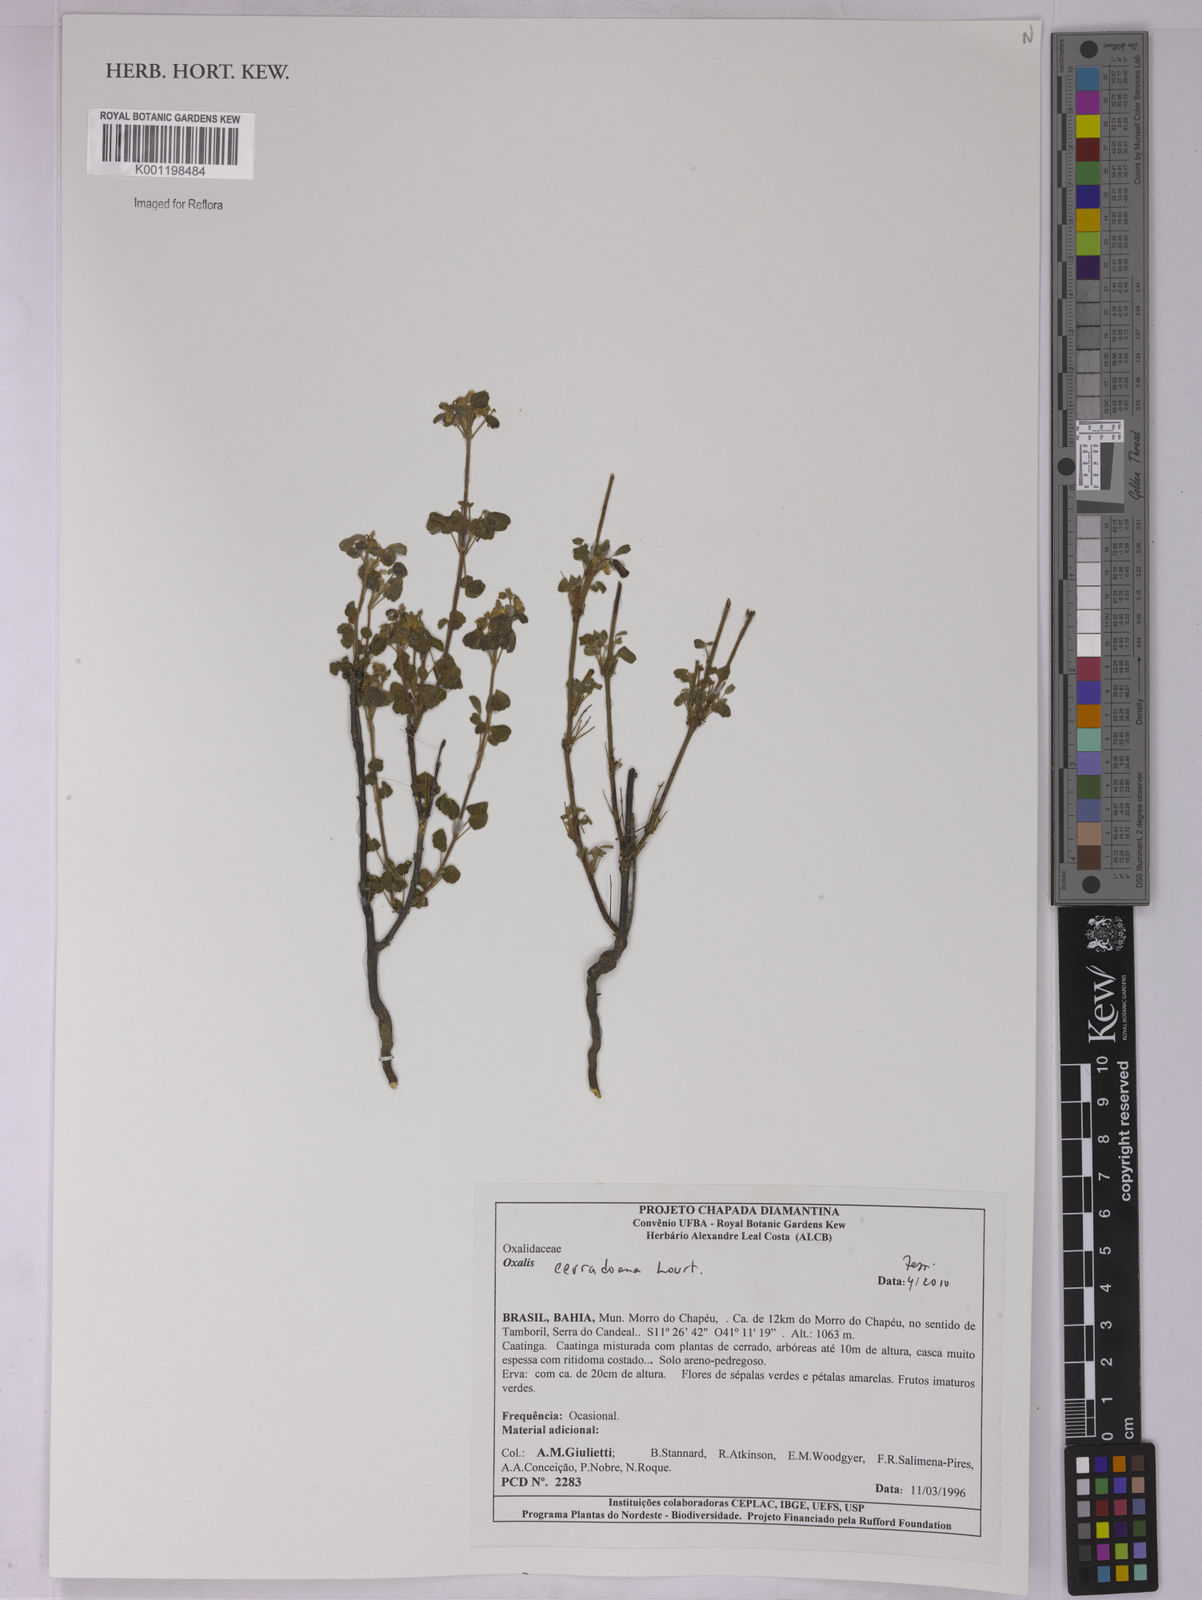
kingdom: Plantae
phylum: Tracheophyta
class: Magnoliopsida
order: Oxalidales
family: Oxalidaceae
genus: Oxalis
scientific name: Oxalis cerradoana
